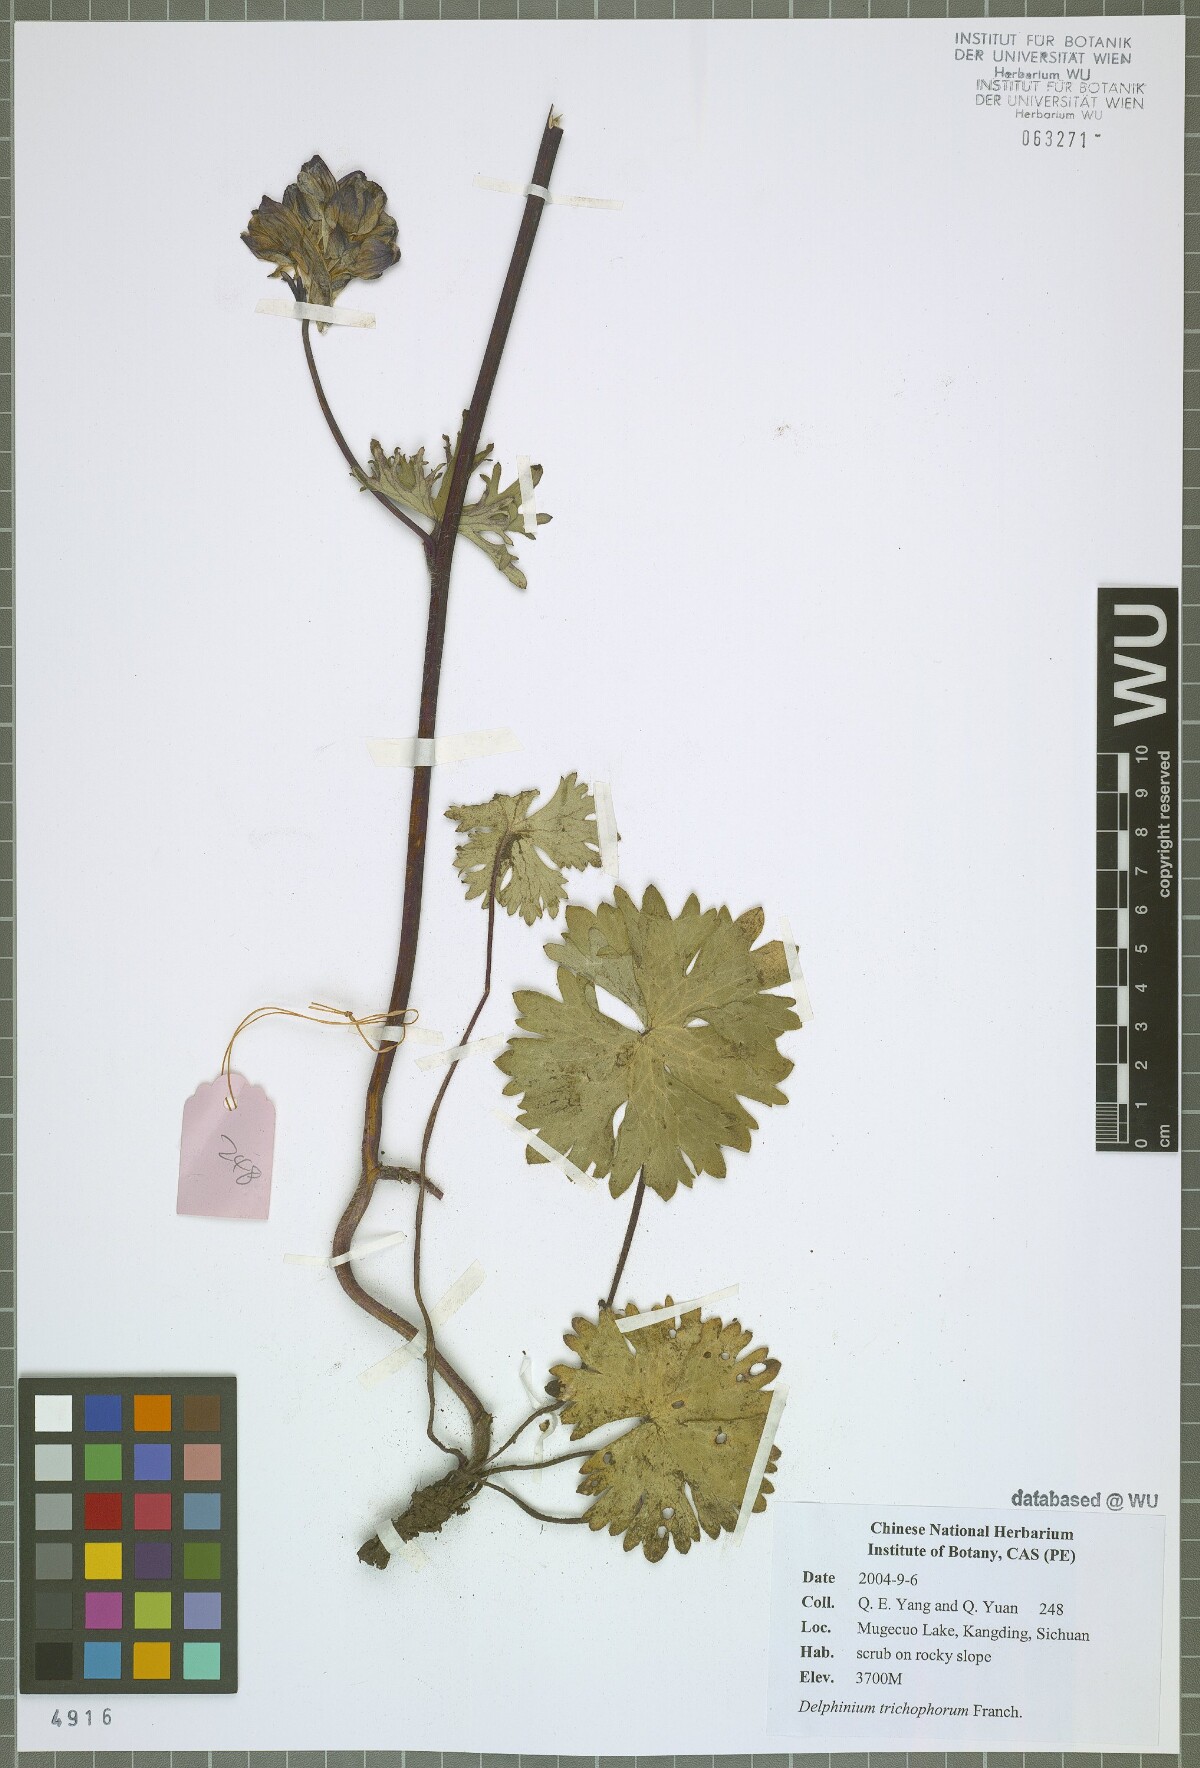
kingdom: Plantae
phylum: Tracheophyta
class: Magnoliopsida
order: Ranunculales
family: Ranunculaceae
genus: Delphinium
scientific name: Delphinium trichophorum
